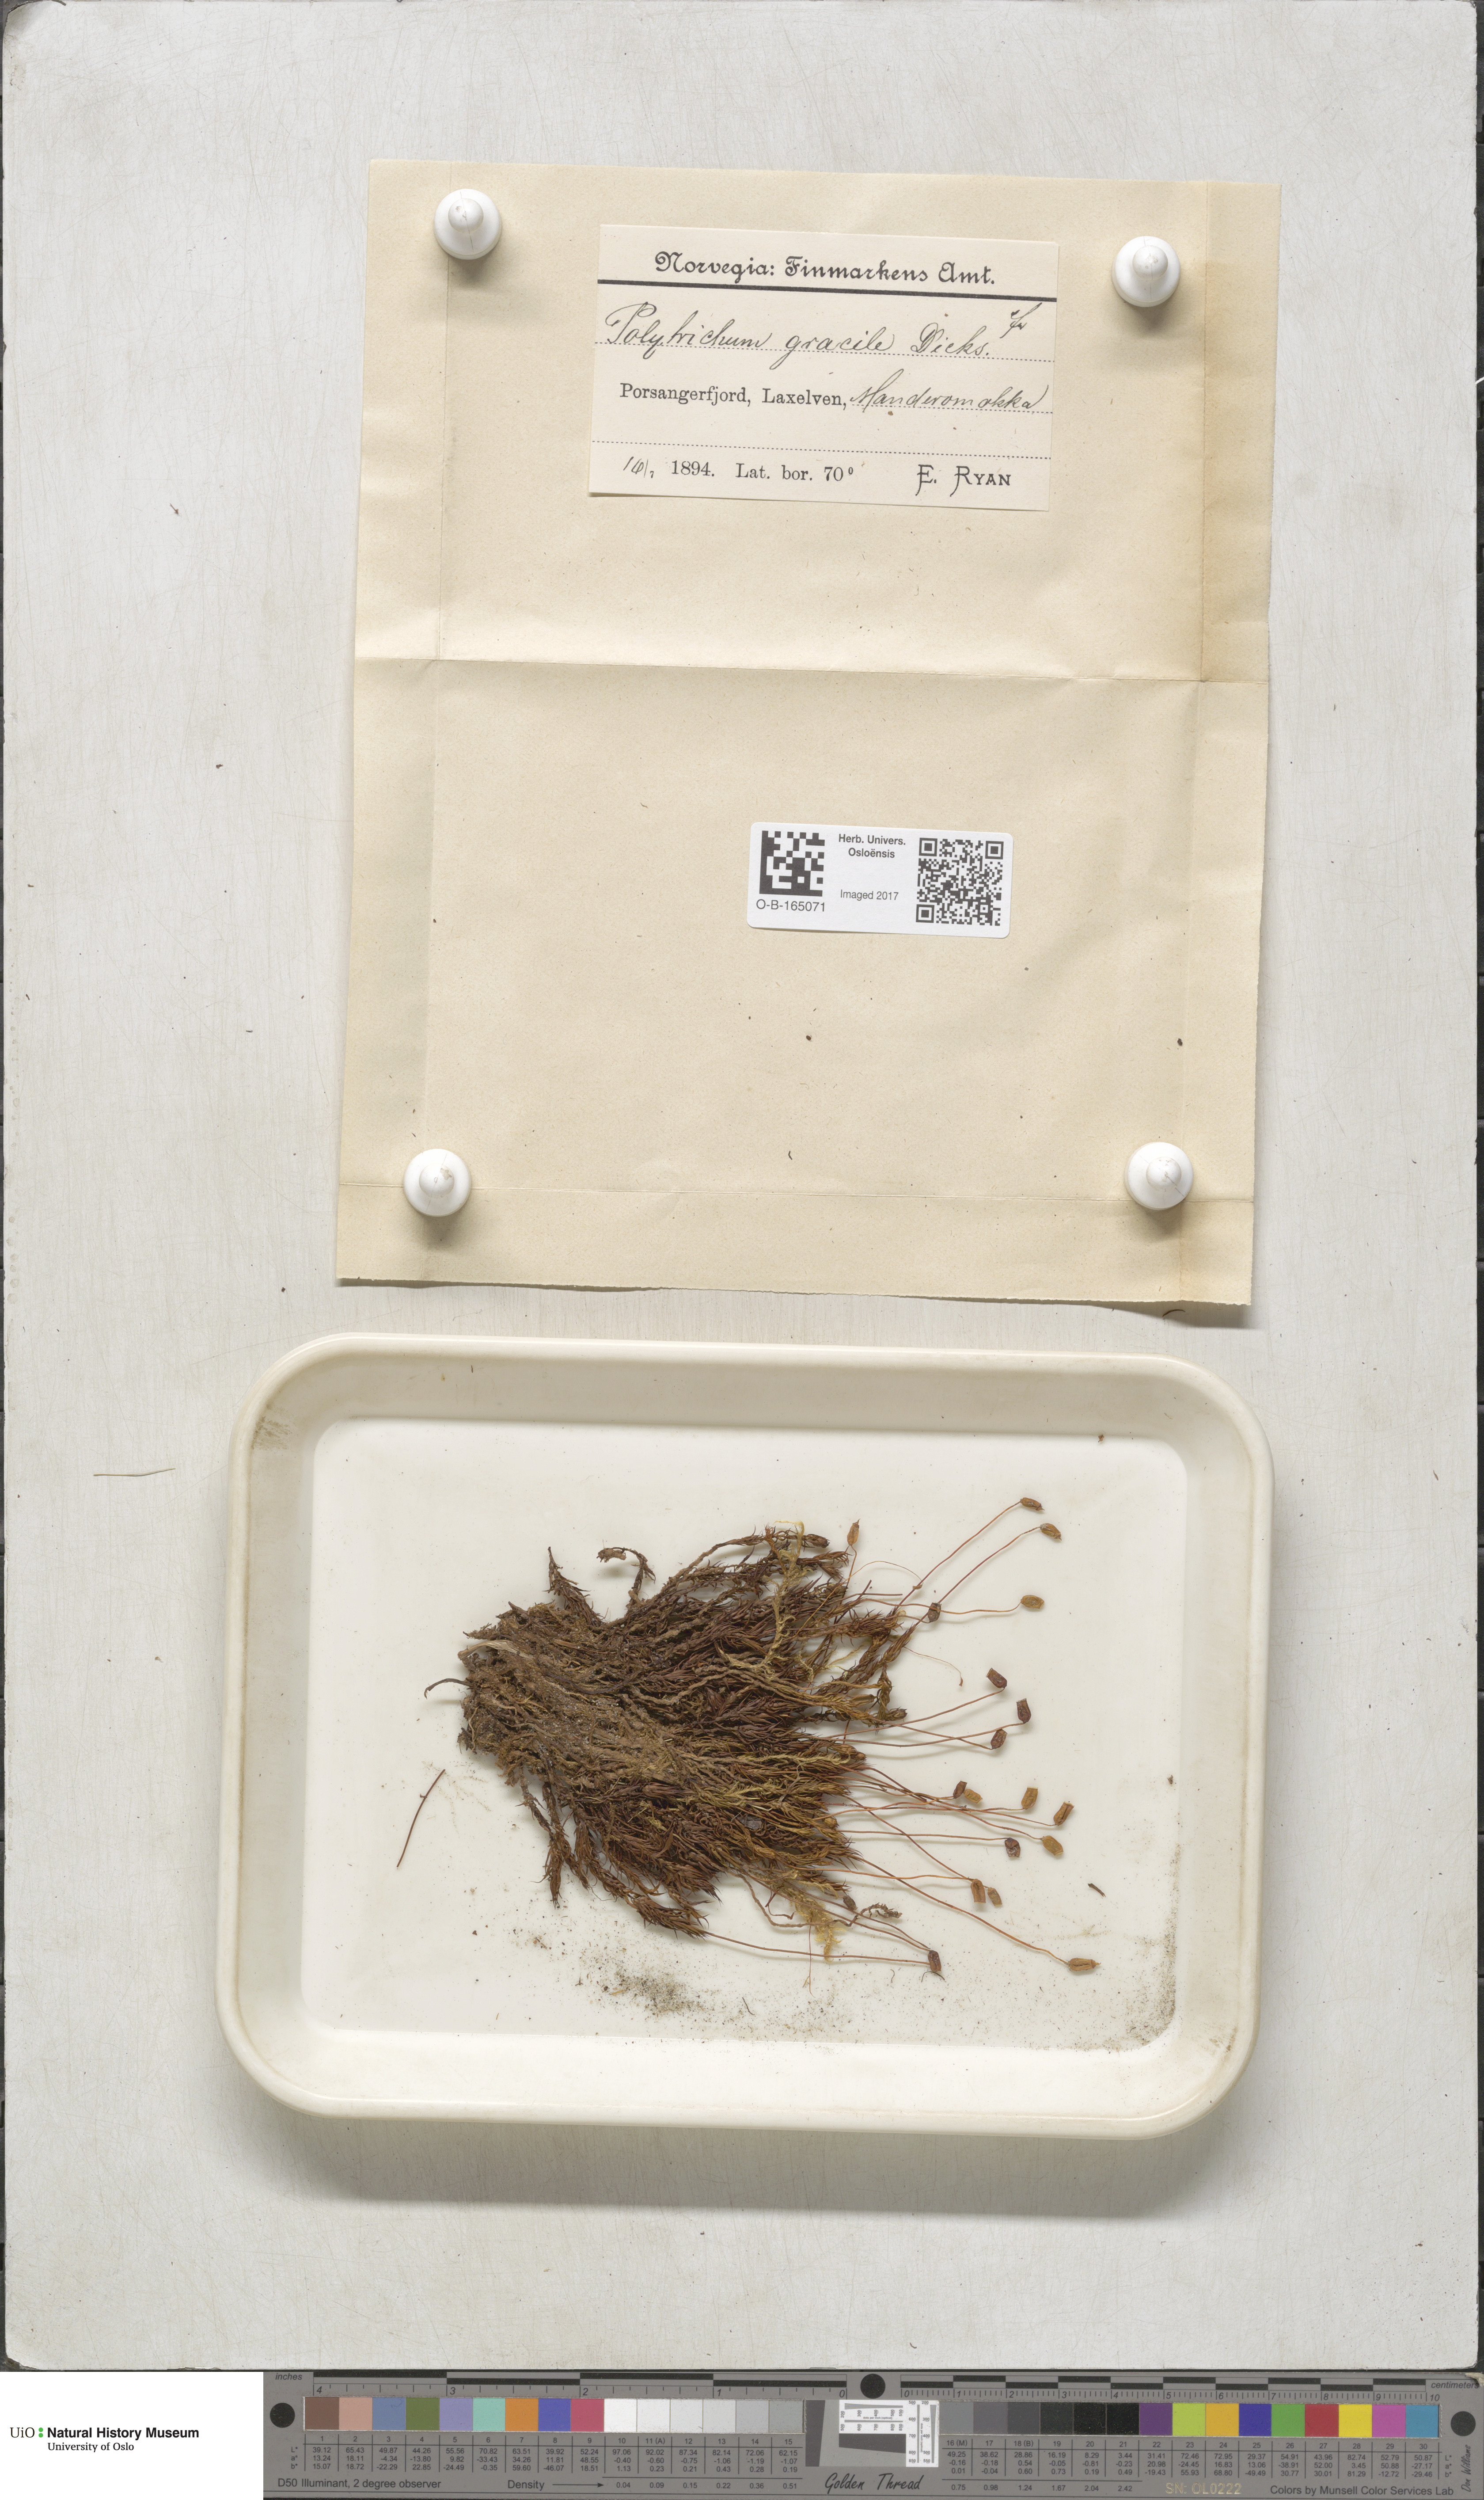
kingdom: Plantae
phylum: Bryophyta
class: Polytrichopsida
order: Polytrichales
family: Polytrichaceae
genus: Polytrichum
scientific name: Polytrichum longisetum
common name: Long-stalked haircap moss
